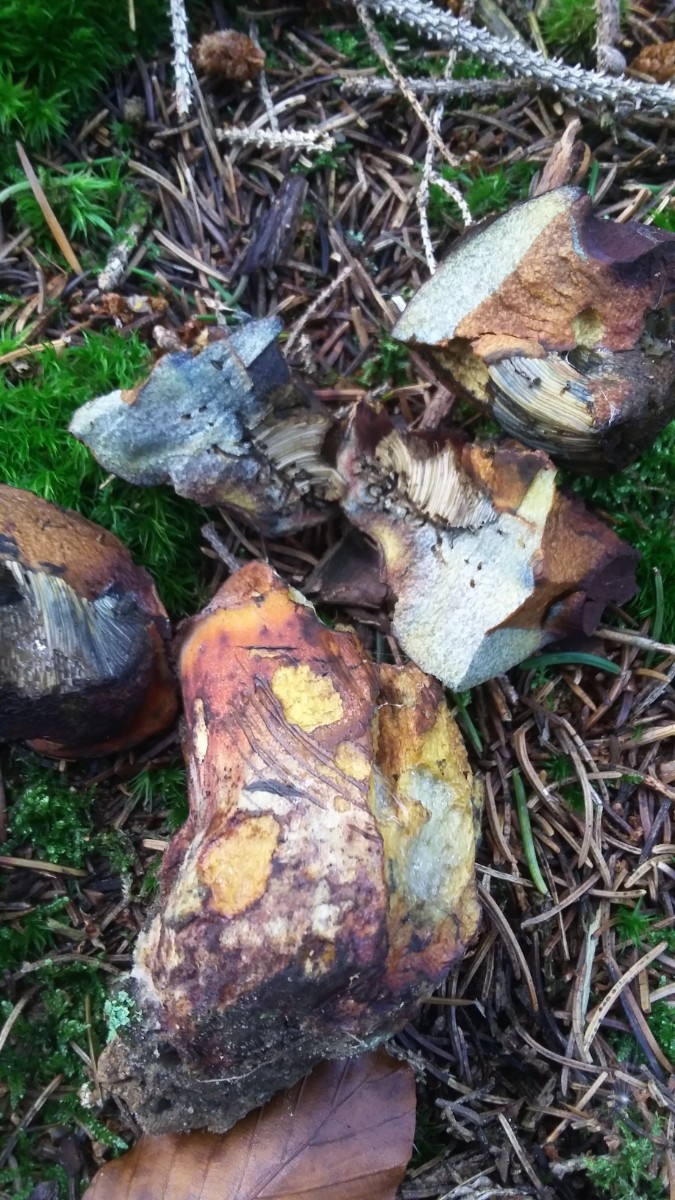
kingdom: Fungi
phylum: Basidiomycota
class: Agaricomycetes
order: Boletales
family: Boletaceae
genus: Neoboletus
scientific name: Neoboletus erythropus
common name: punktstokket indigorørhat
